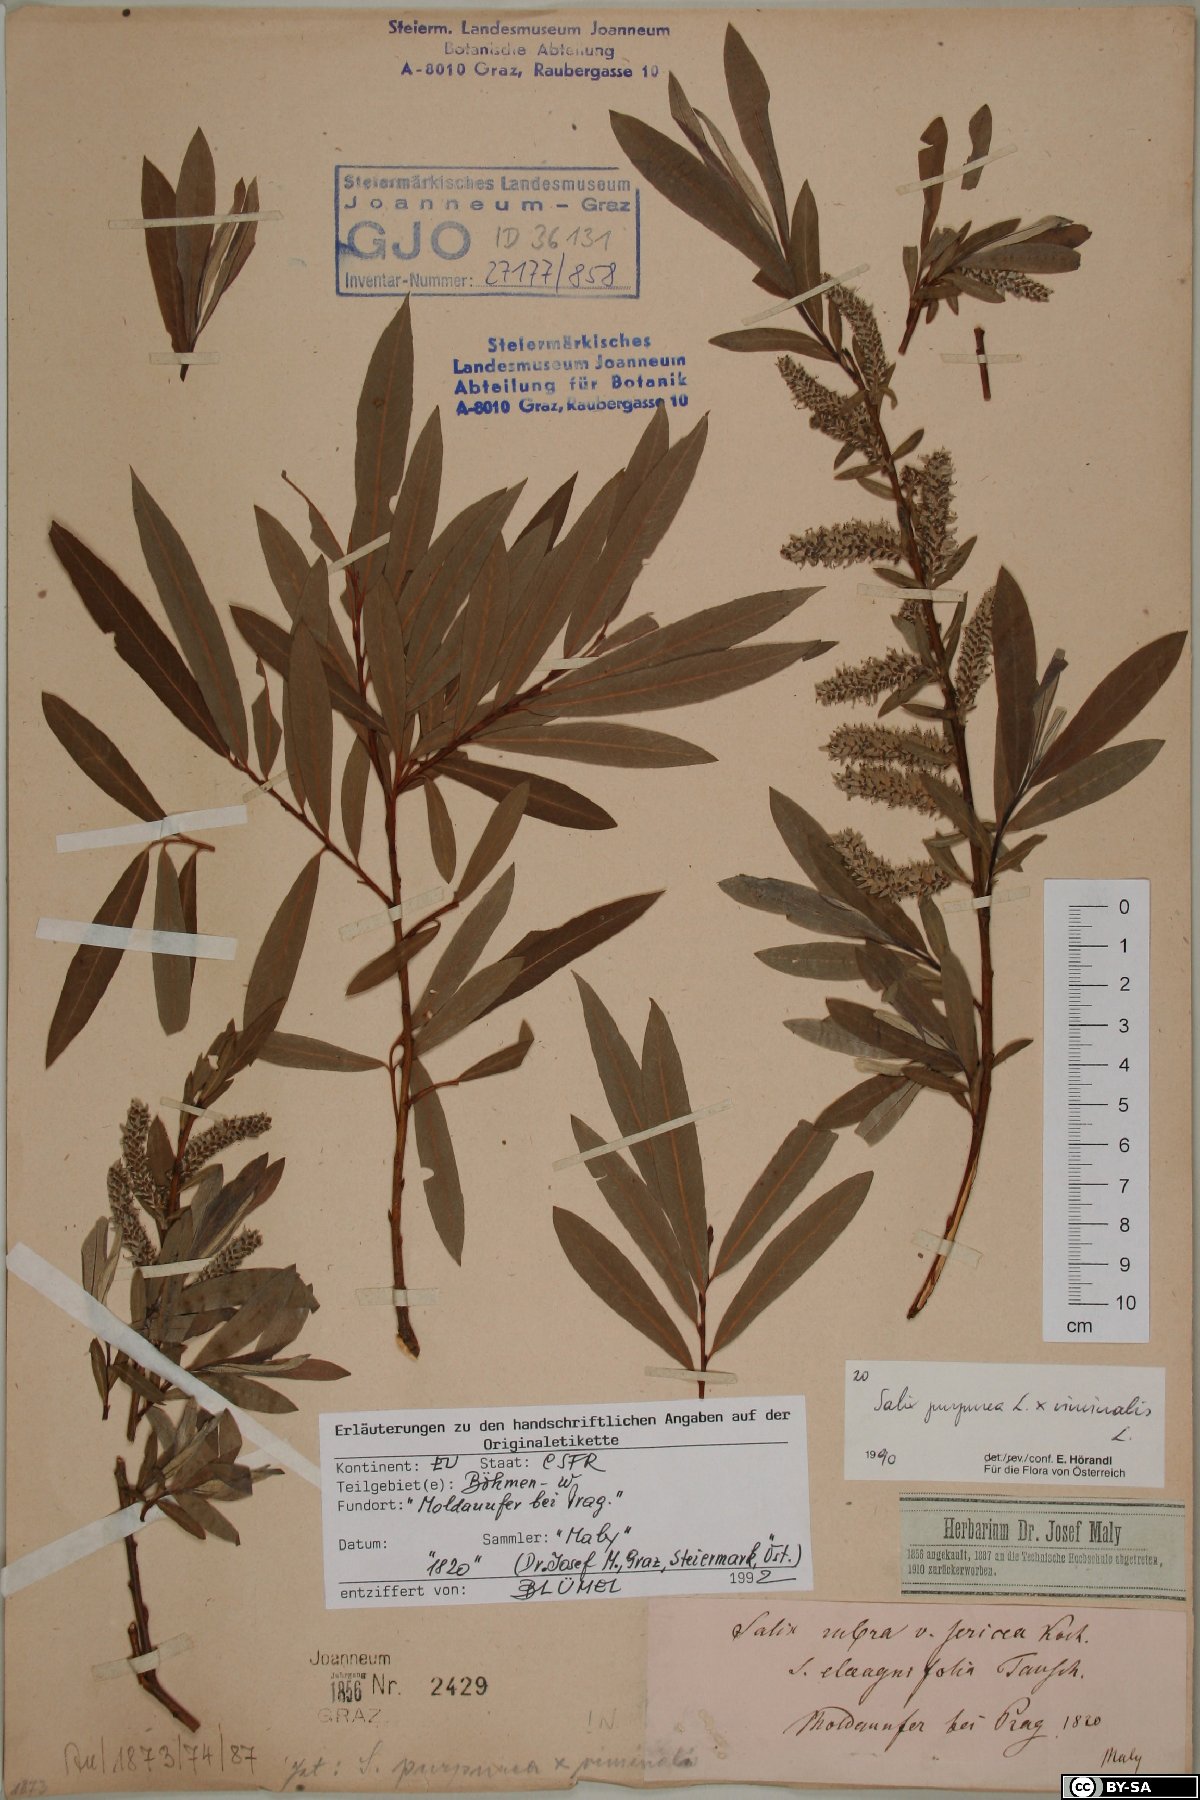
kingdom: Plantae
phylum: Tracheophyta
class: Magnoliopsida
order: Malpighiales
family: Salicaceae
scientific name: Salicaceae
